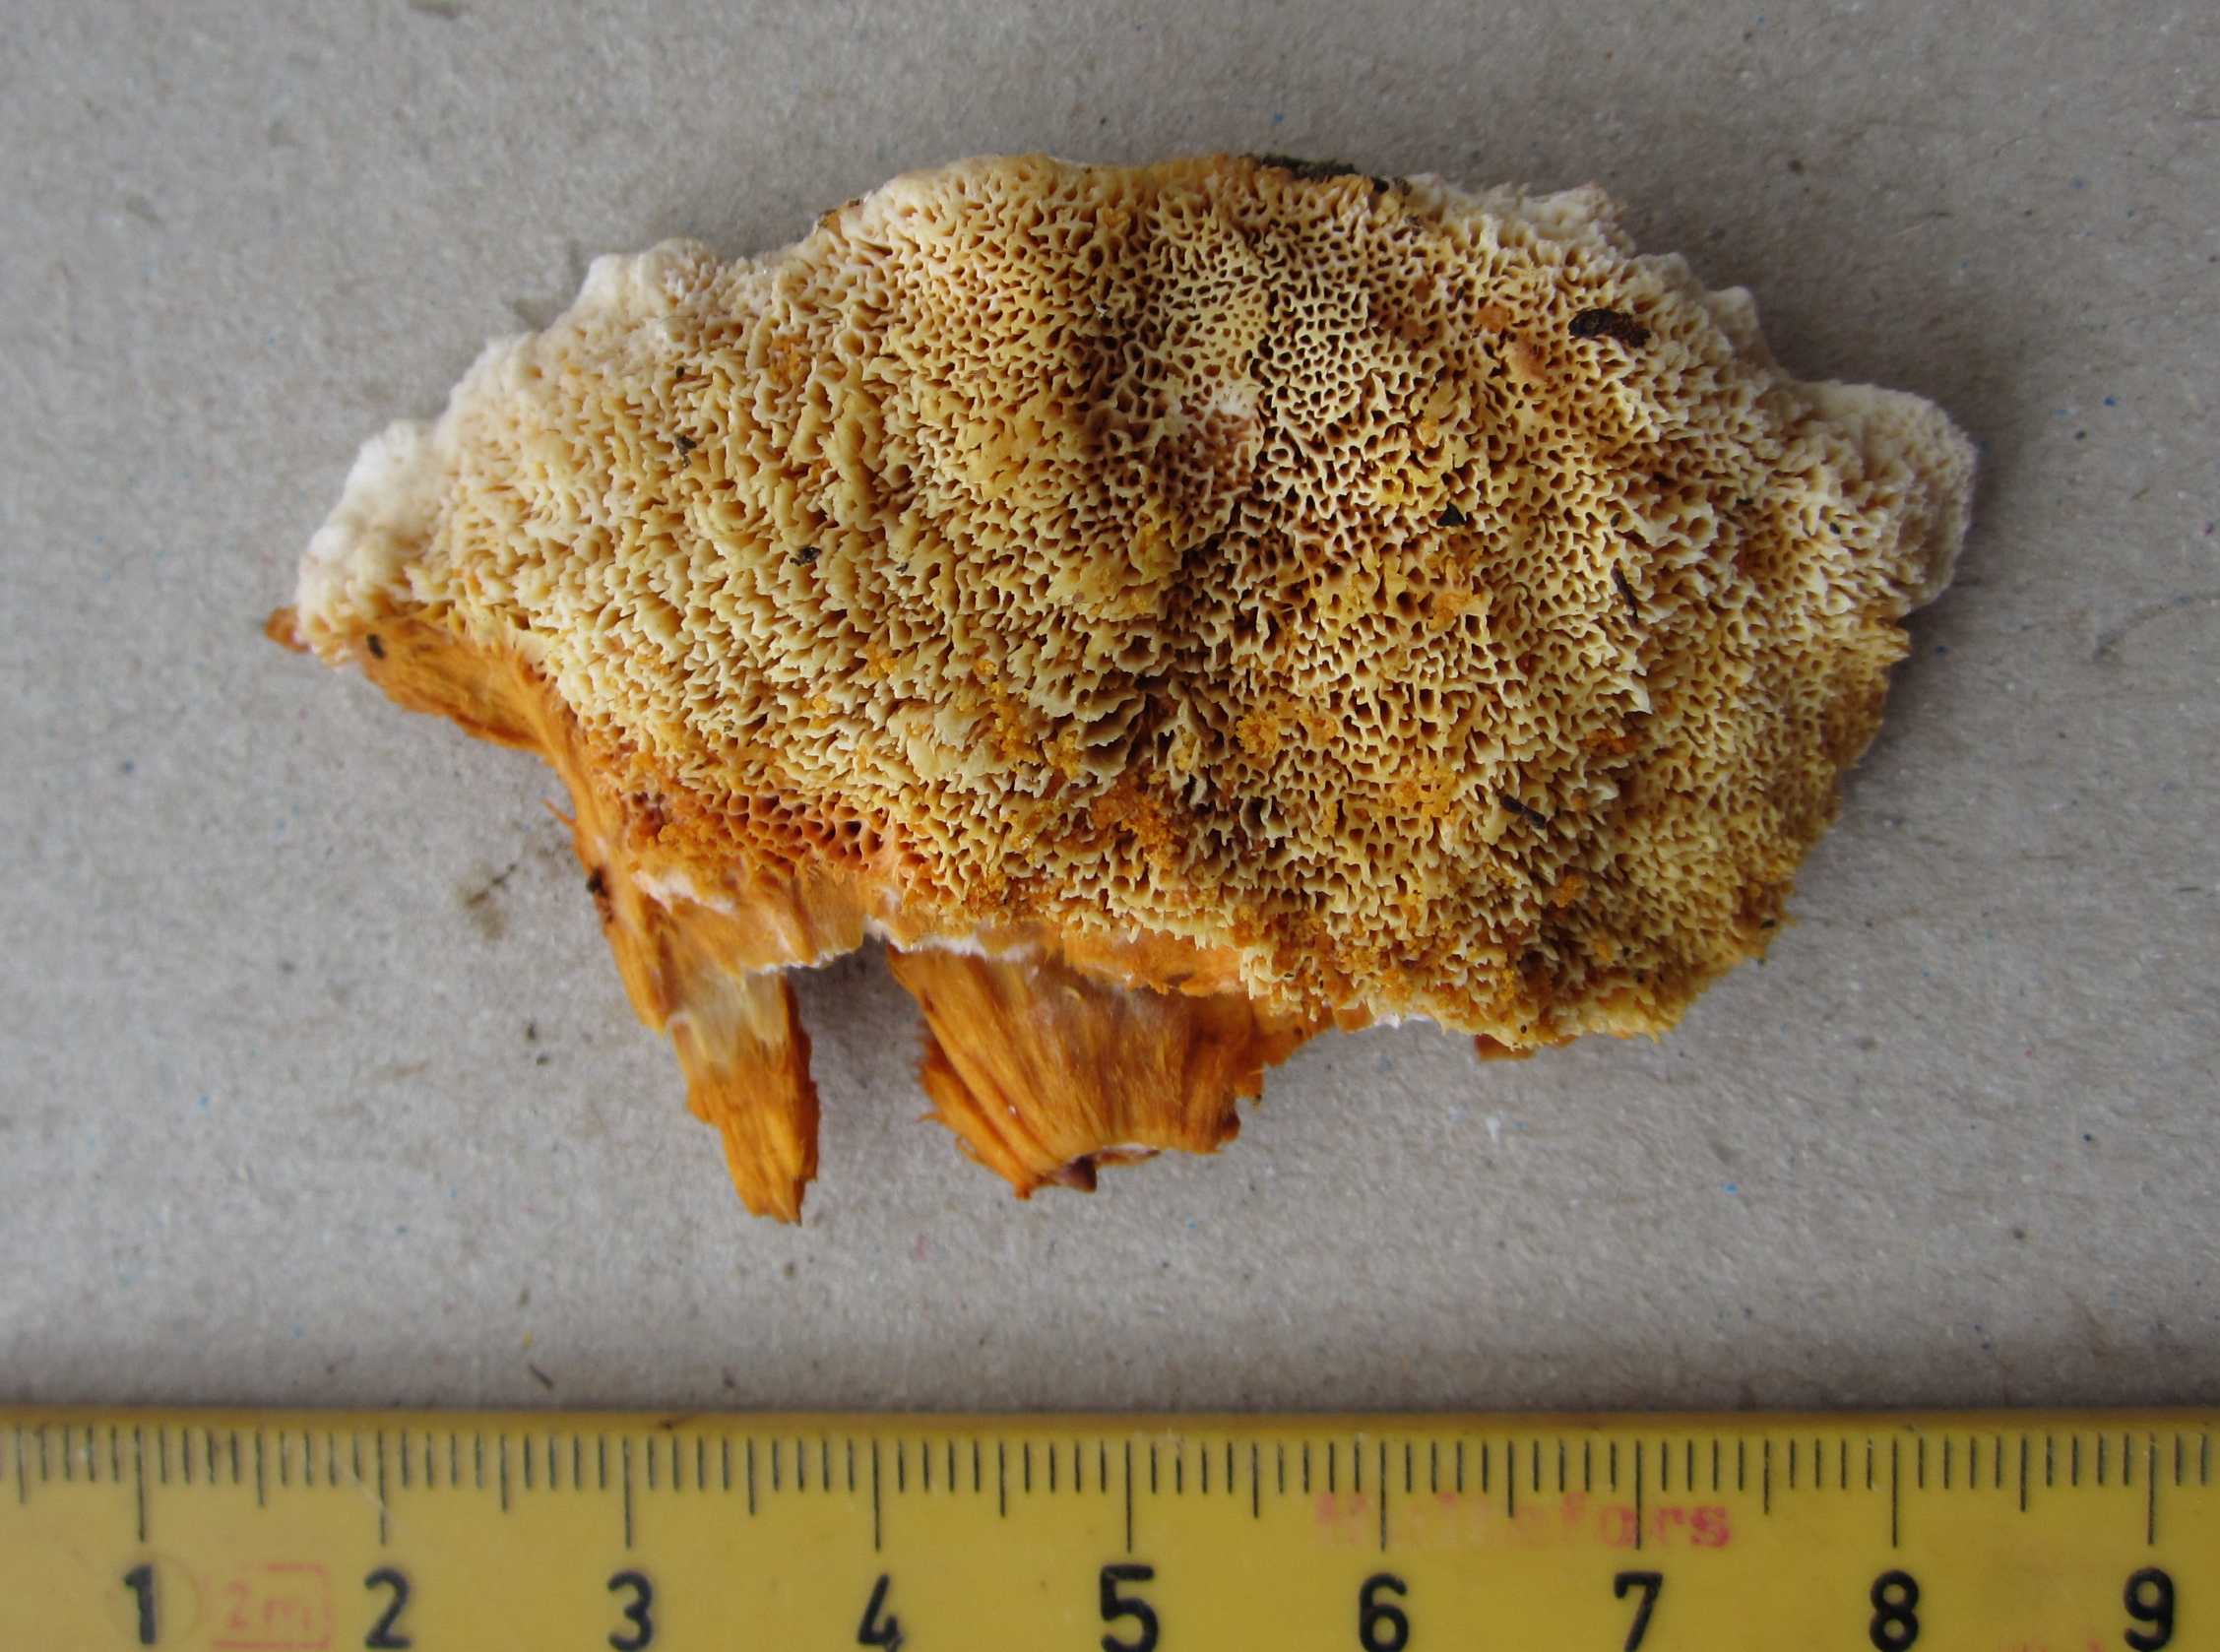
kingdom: Fungi
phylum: Basidiomycota
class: Agaricomycetes
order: Polyporales
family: Pycnoporellaceae
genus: Pycnoporellus
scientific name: Pycnoporellus fulgens
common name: flammeporesvamp
